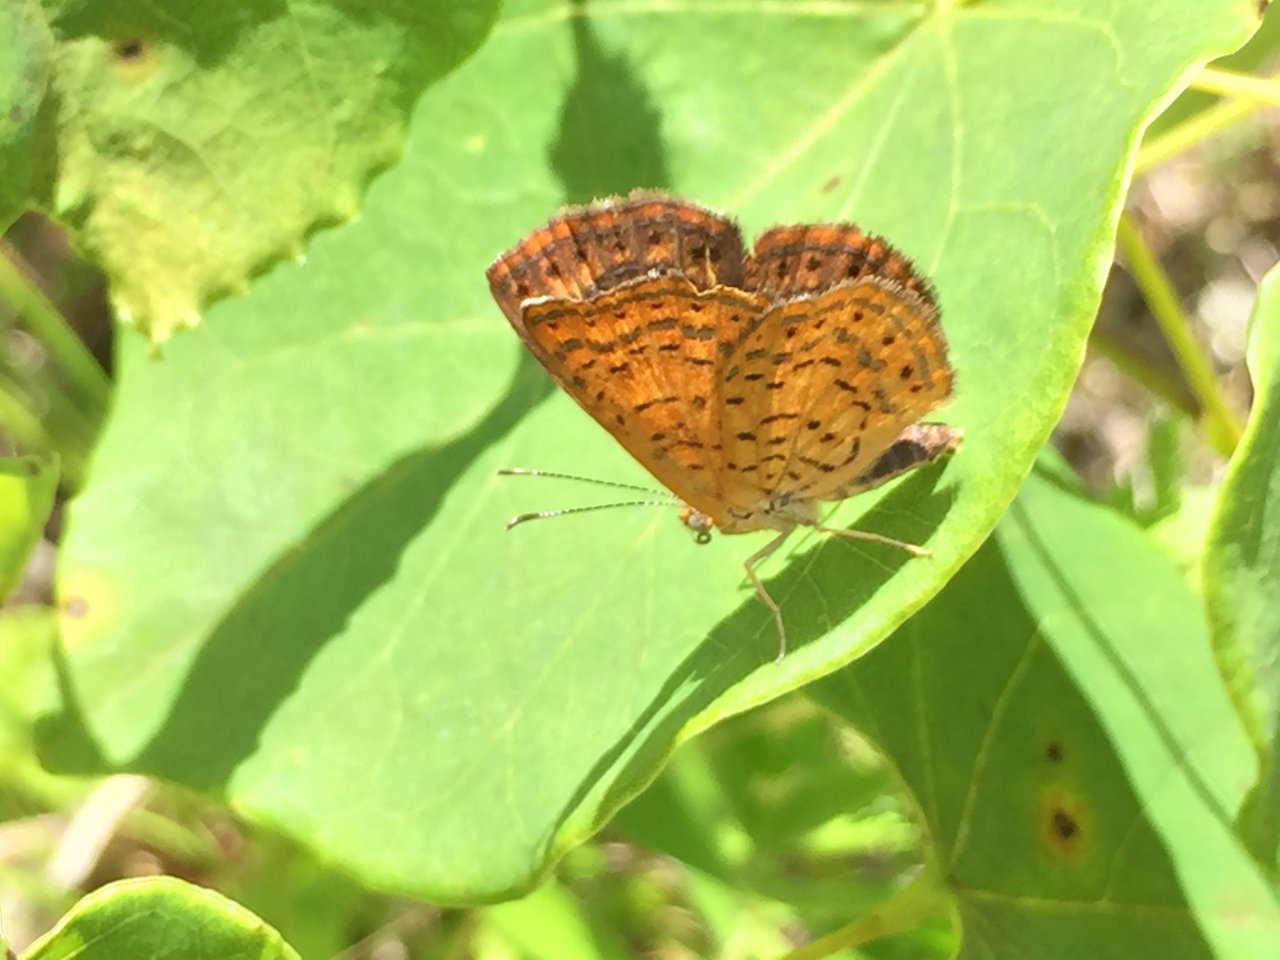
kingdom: Animalia
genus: Calephelis
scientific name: Calephelis borealis
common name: Northern Metalmark
